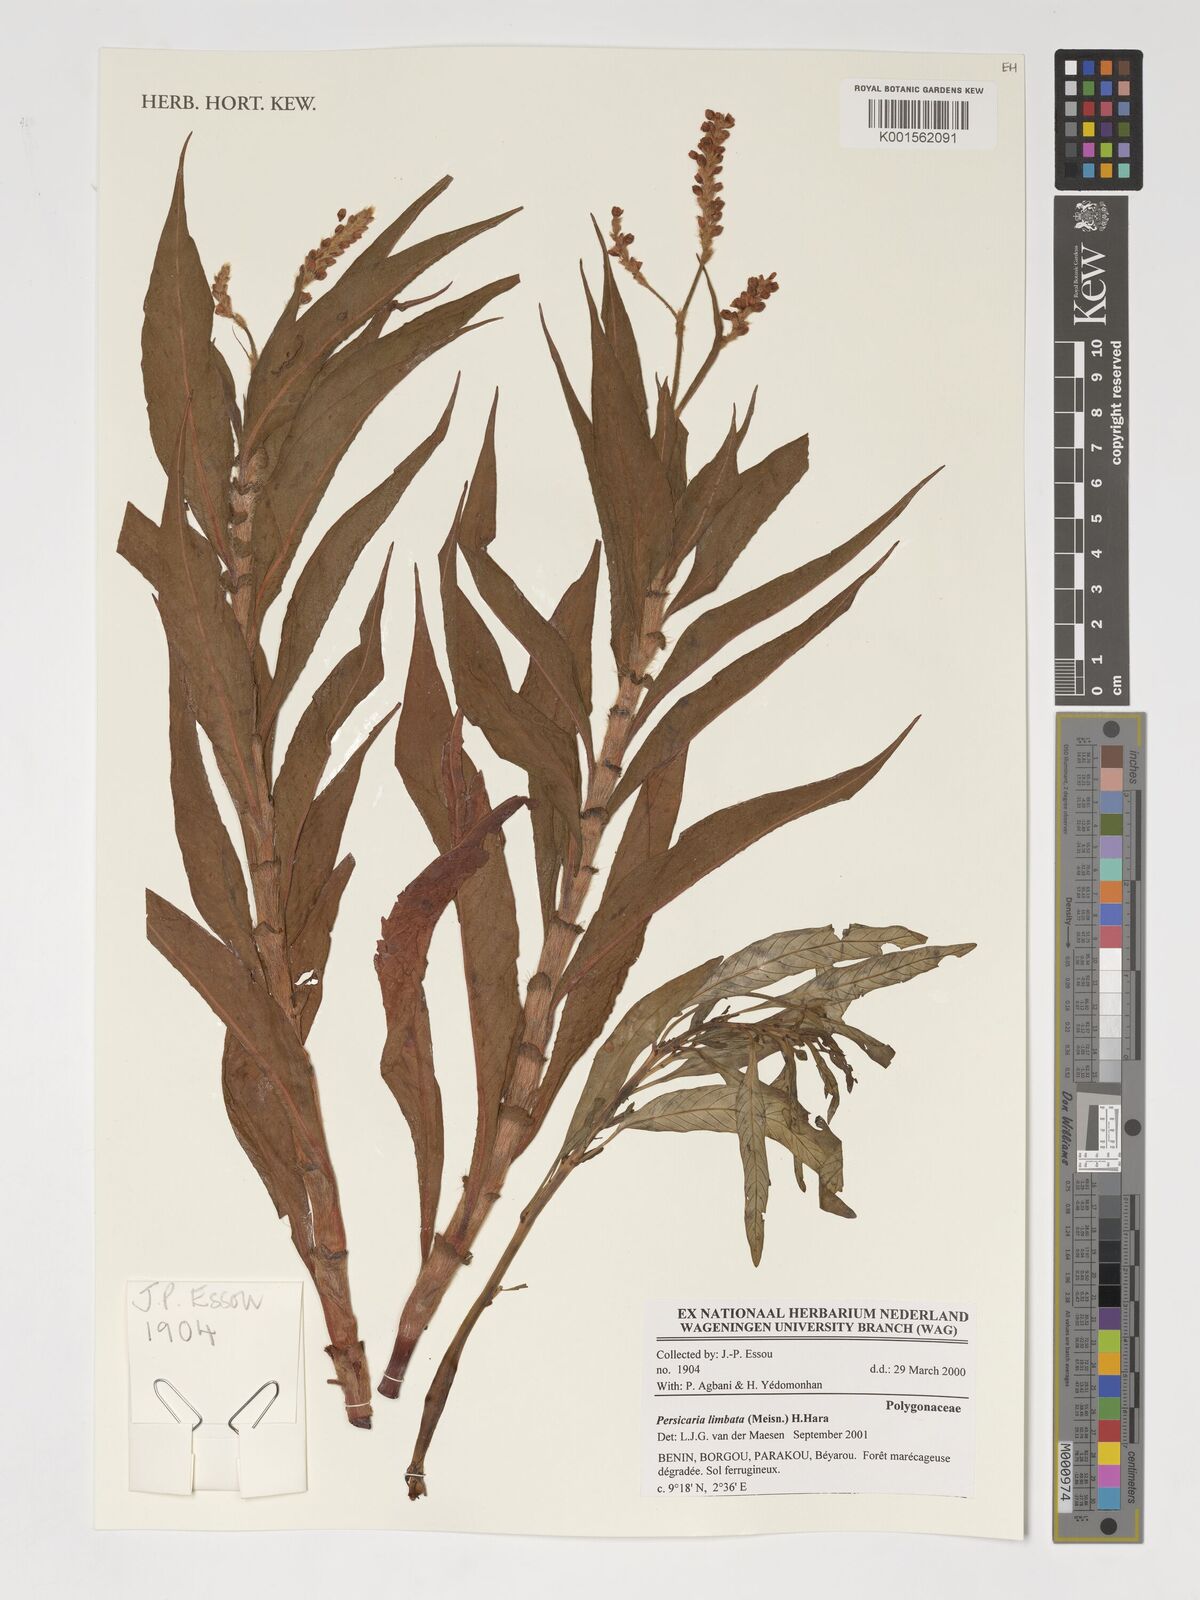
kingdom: Plantae
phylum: Tracheophyta
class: Magnoliopsida
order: Caryophyllales
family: Polygonaceae
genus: Persicaria
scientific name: Persicaria limbata
